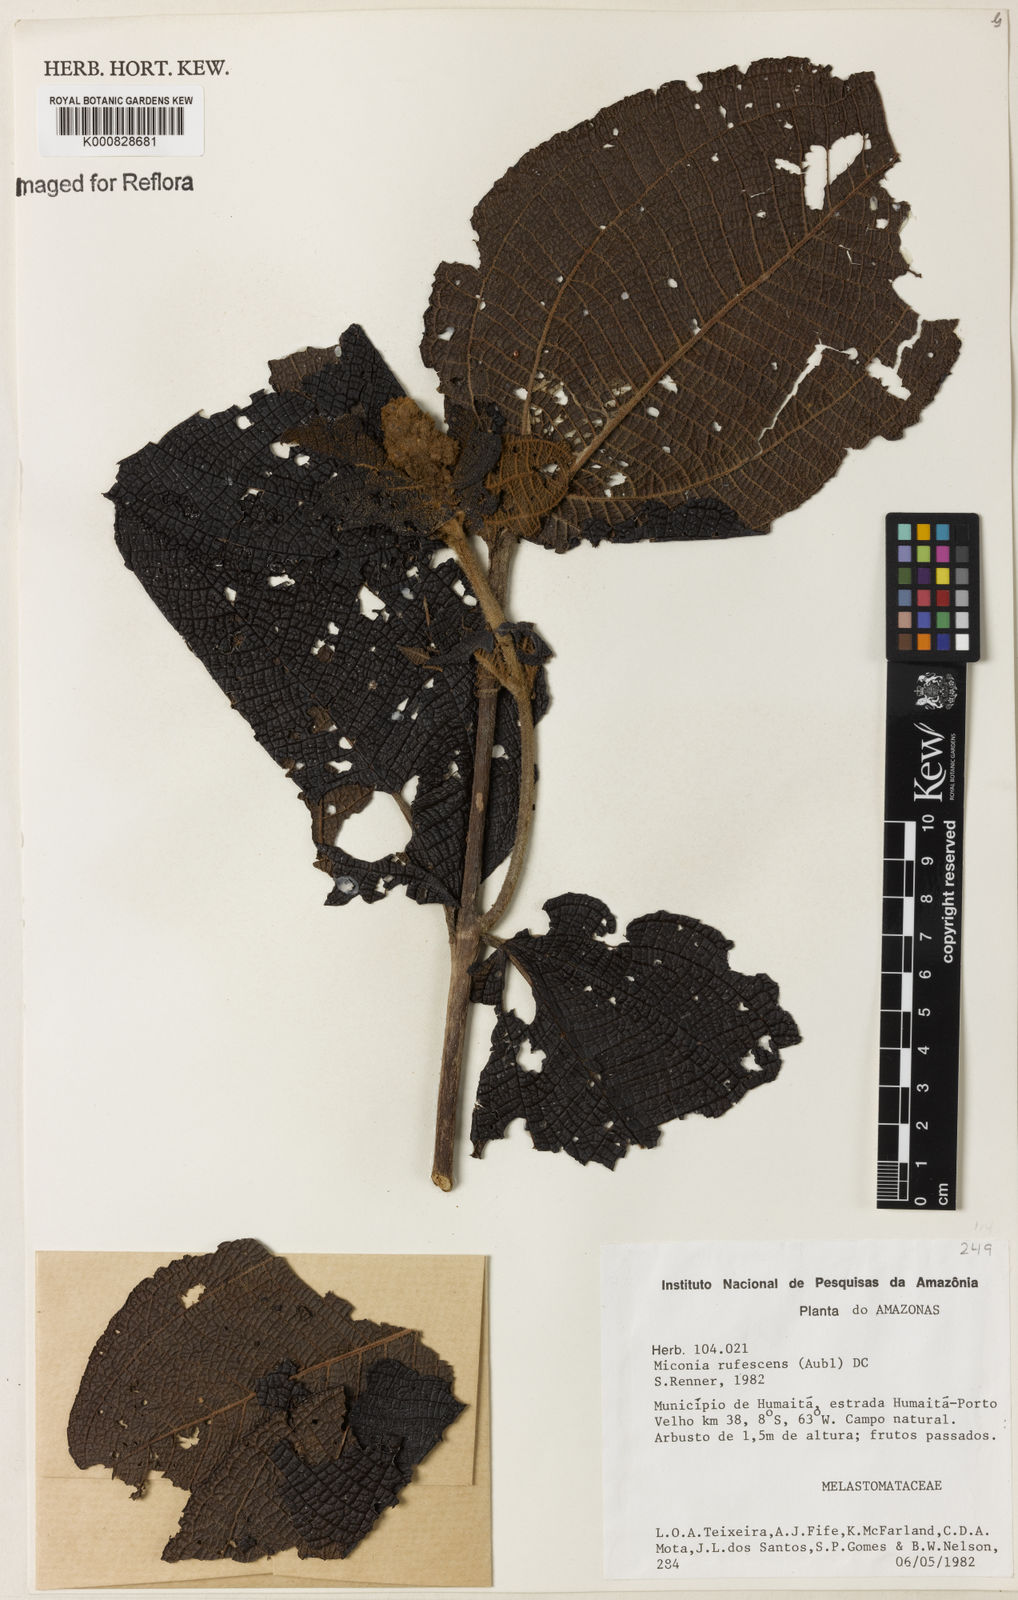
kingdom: Plantae
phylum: Tracheophyta
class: Magnoliopsida
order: Myrtales
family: Melastomataceae
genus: Miconia
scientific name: Miconia rufescens
